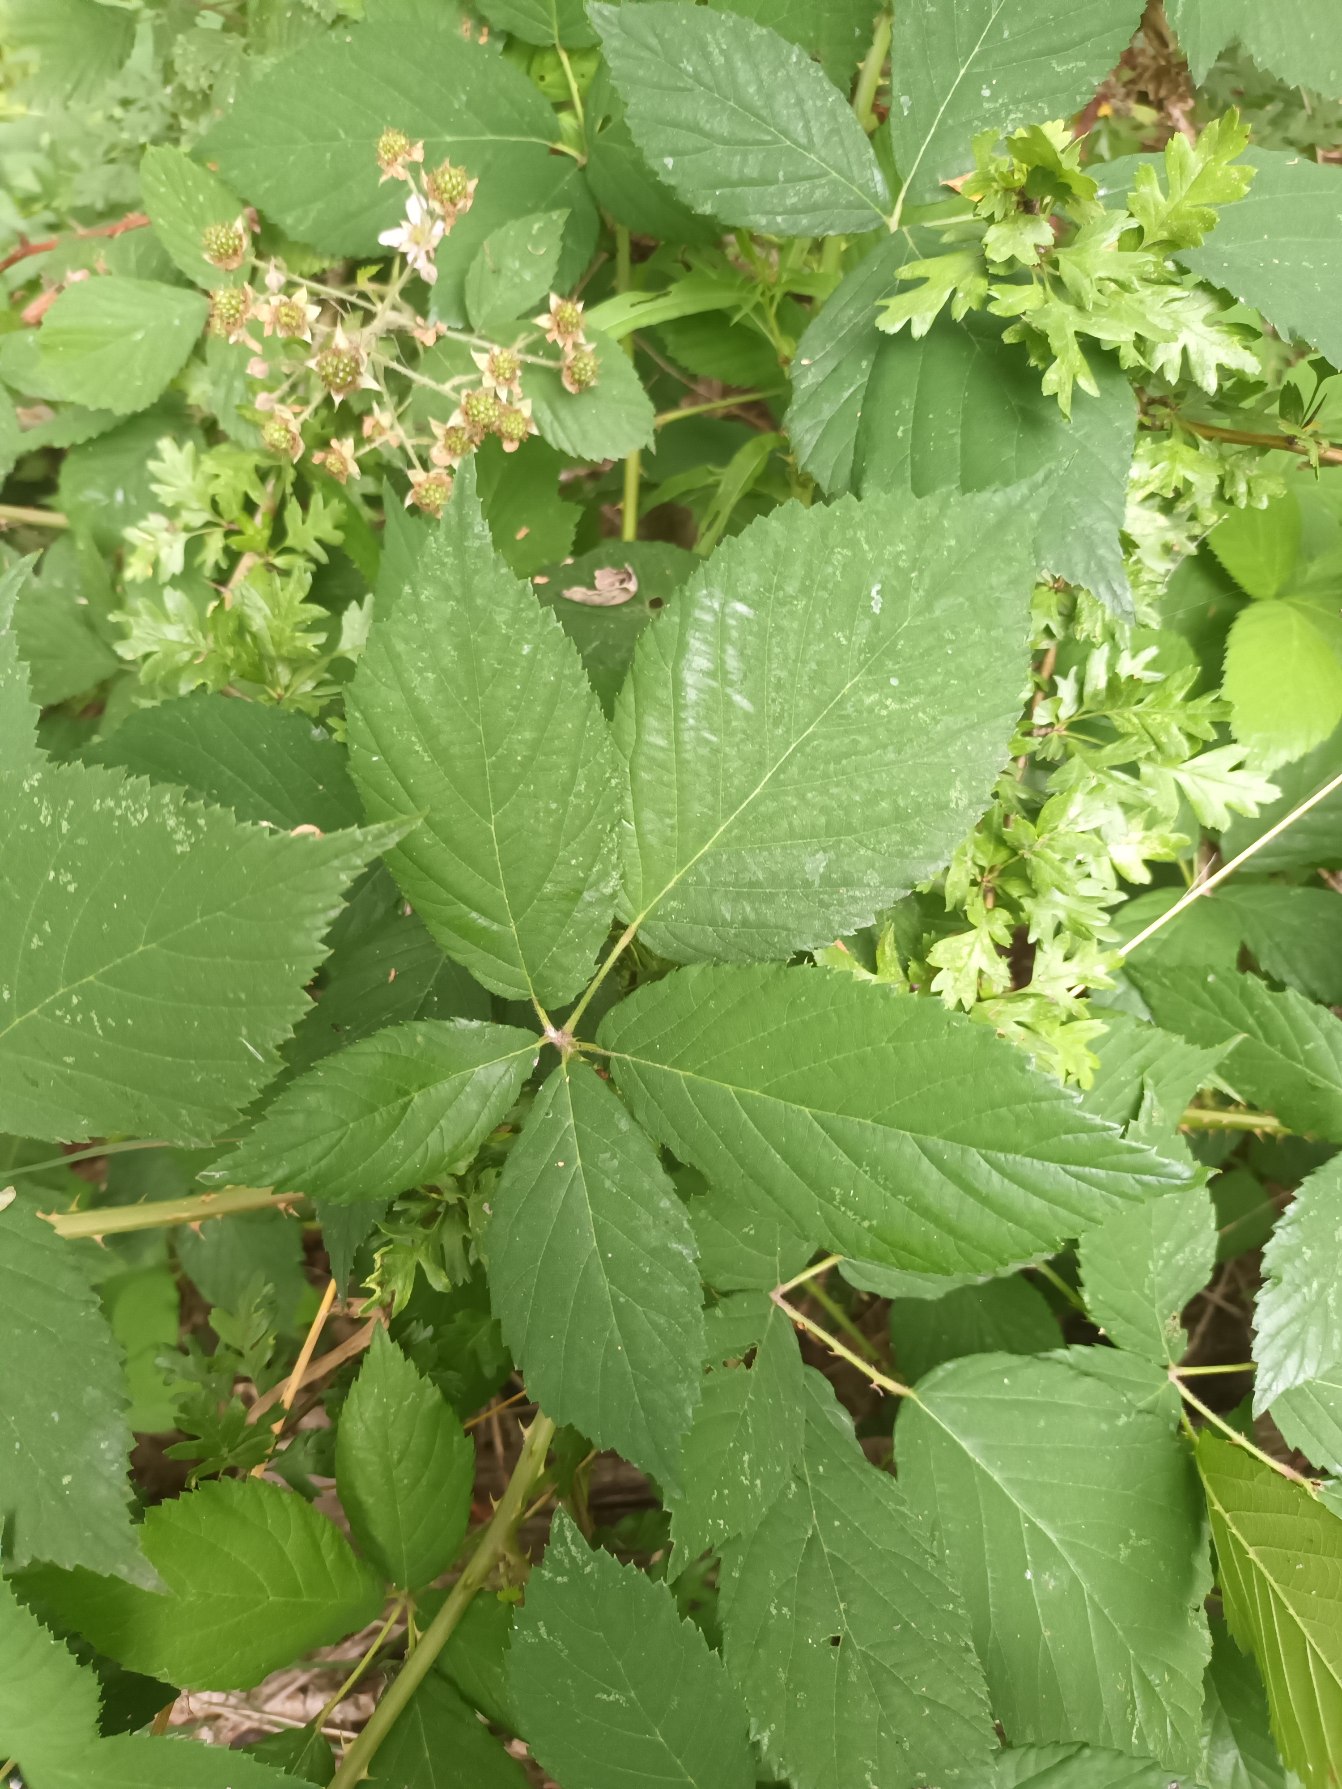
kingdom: Plantae
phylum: Tracheophyta
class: Magnoliopsida
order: Rosales
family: Rosaceae
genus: Rubus
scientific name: Rubus sprengelii
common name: Sprengels brombær
